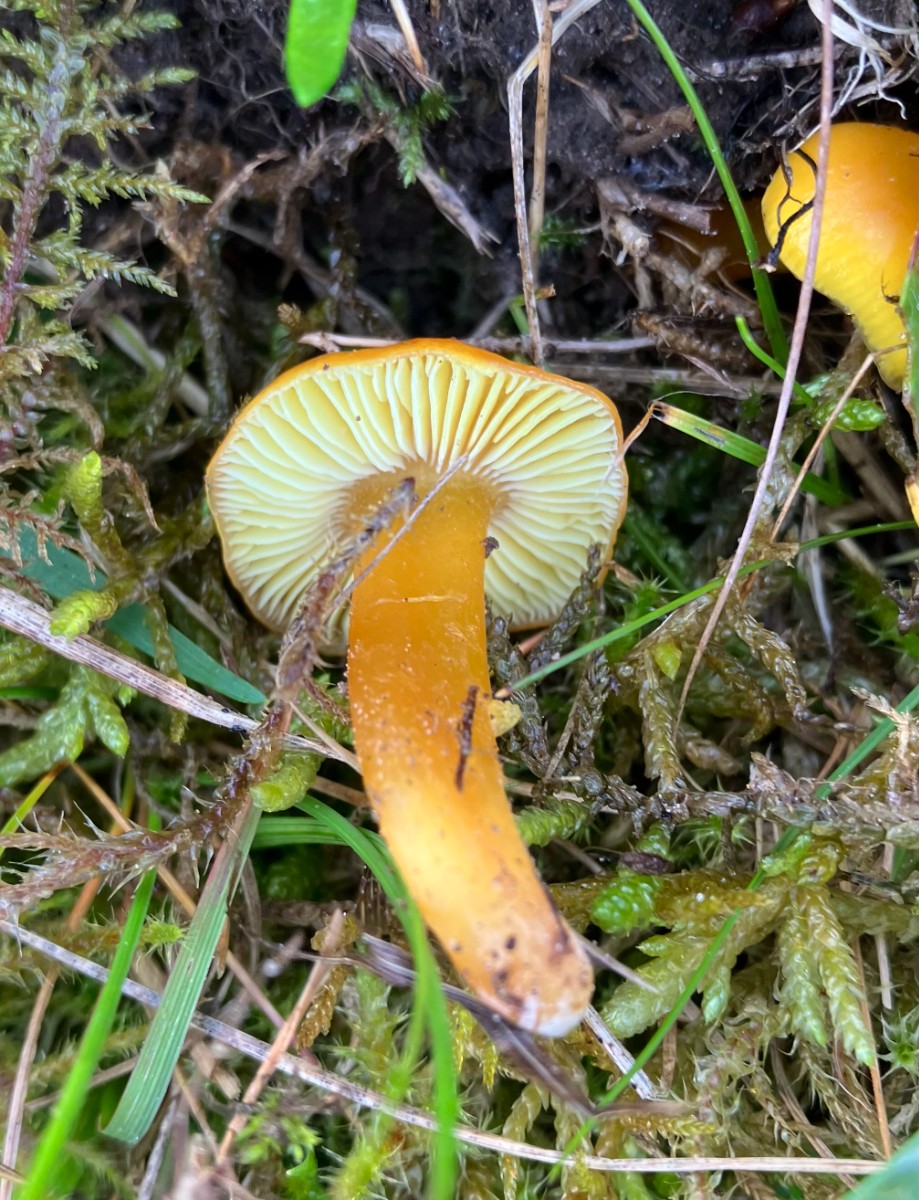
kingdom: Fungi
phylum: Basidiomycota
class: Agaricomycetes
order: Agaricales
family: Hygrophoraceae
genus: Hygrocybe
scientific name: Hygrocybe chlorophana
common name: gul vokshat
